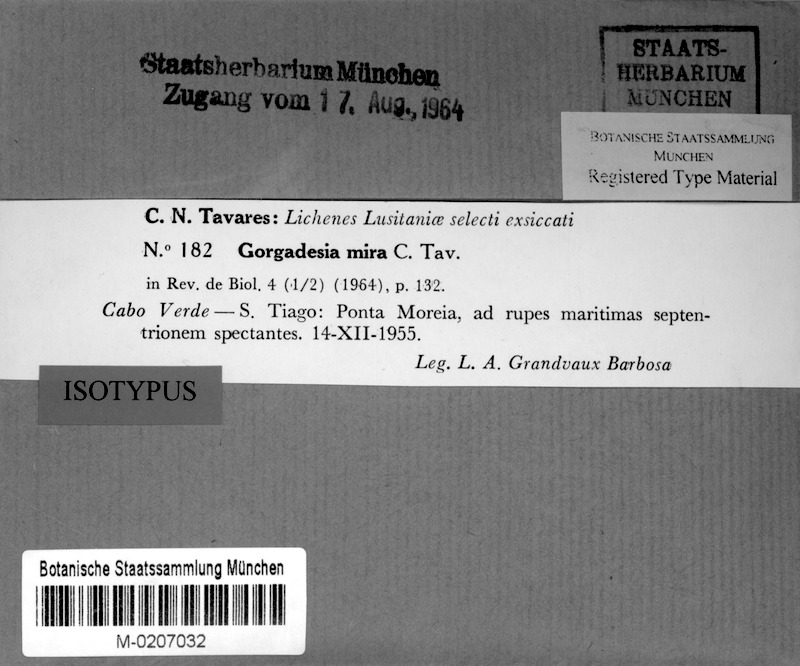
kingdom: Fungi
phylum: Ascomycota
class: Arthoniomycetes
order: Arthoniales
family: Roccellaceae
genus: Gorgadesia
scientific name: Gorgadesia mira
